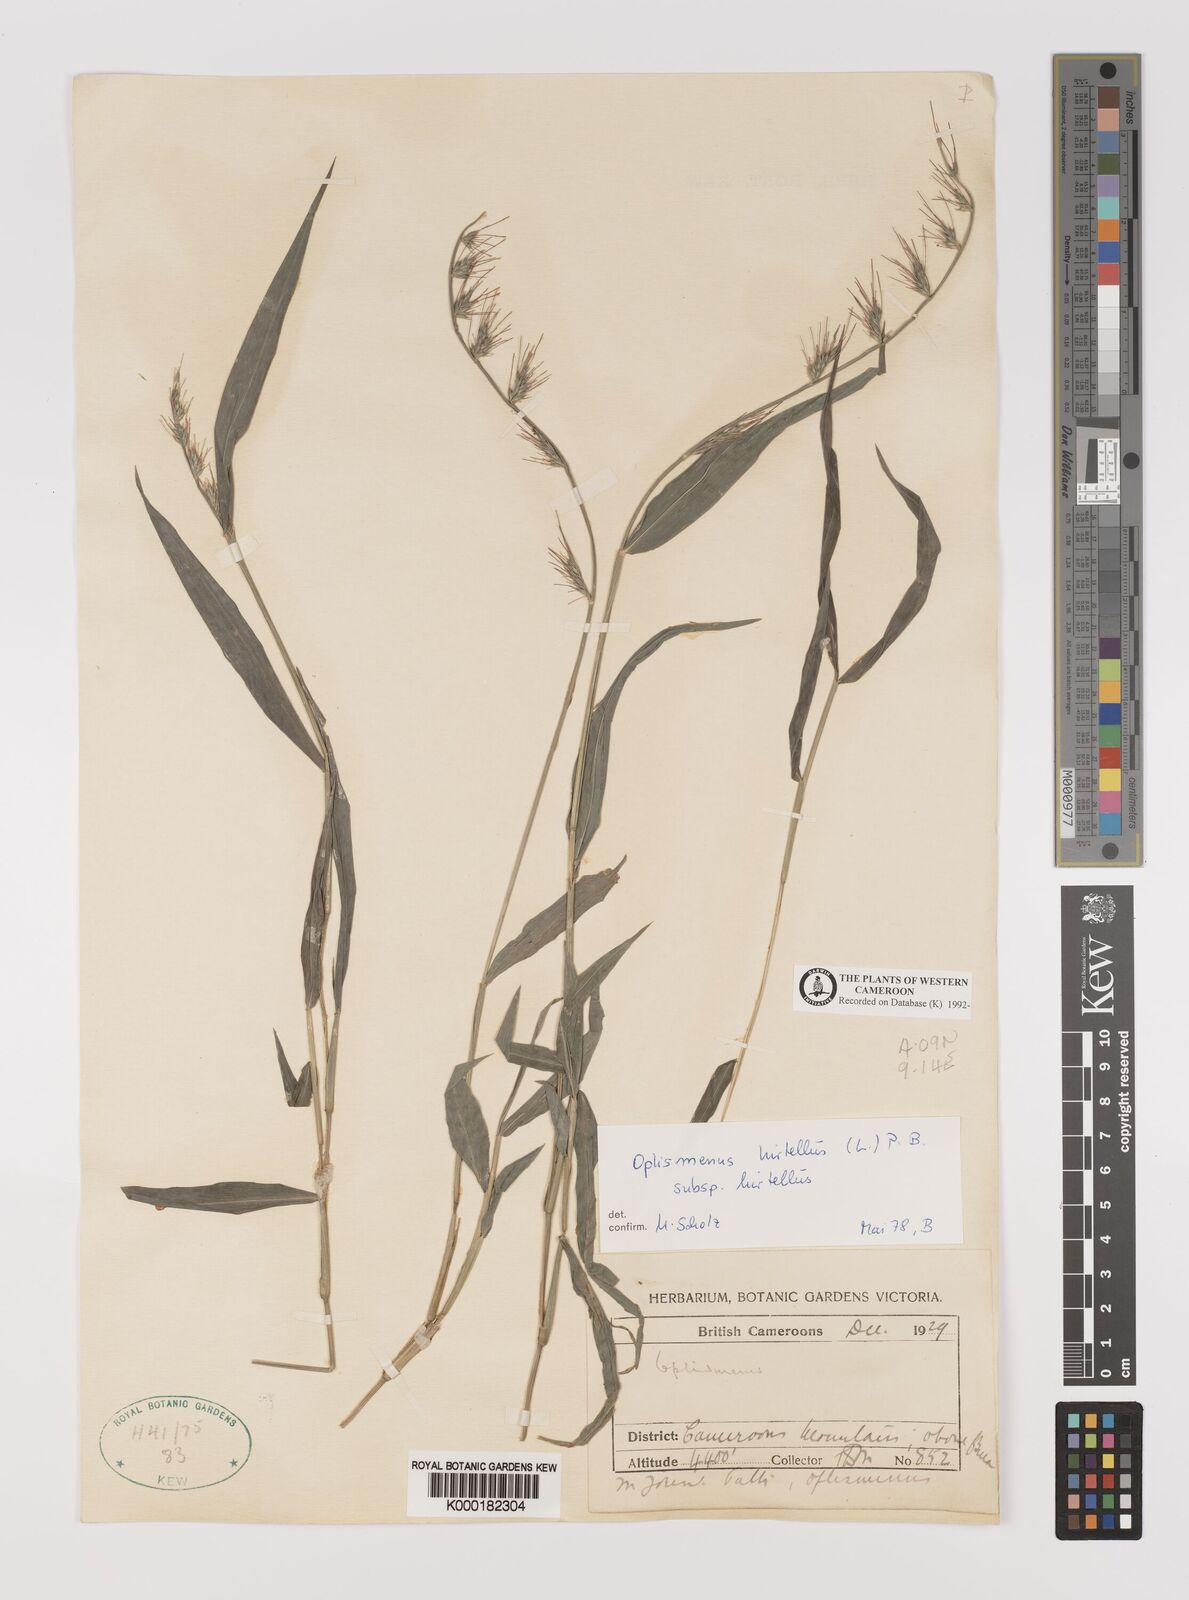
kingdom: Plantae
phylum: Tracheophyta
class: Liliopsida
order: Poales
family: Poaceae
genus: Oplismenus
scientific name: Oplismenus hirtellus
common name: Basketgrass
